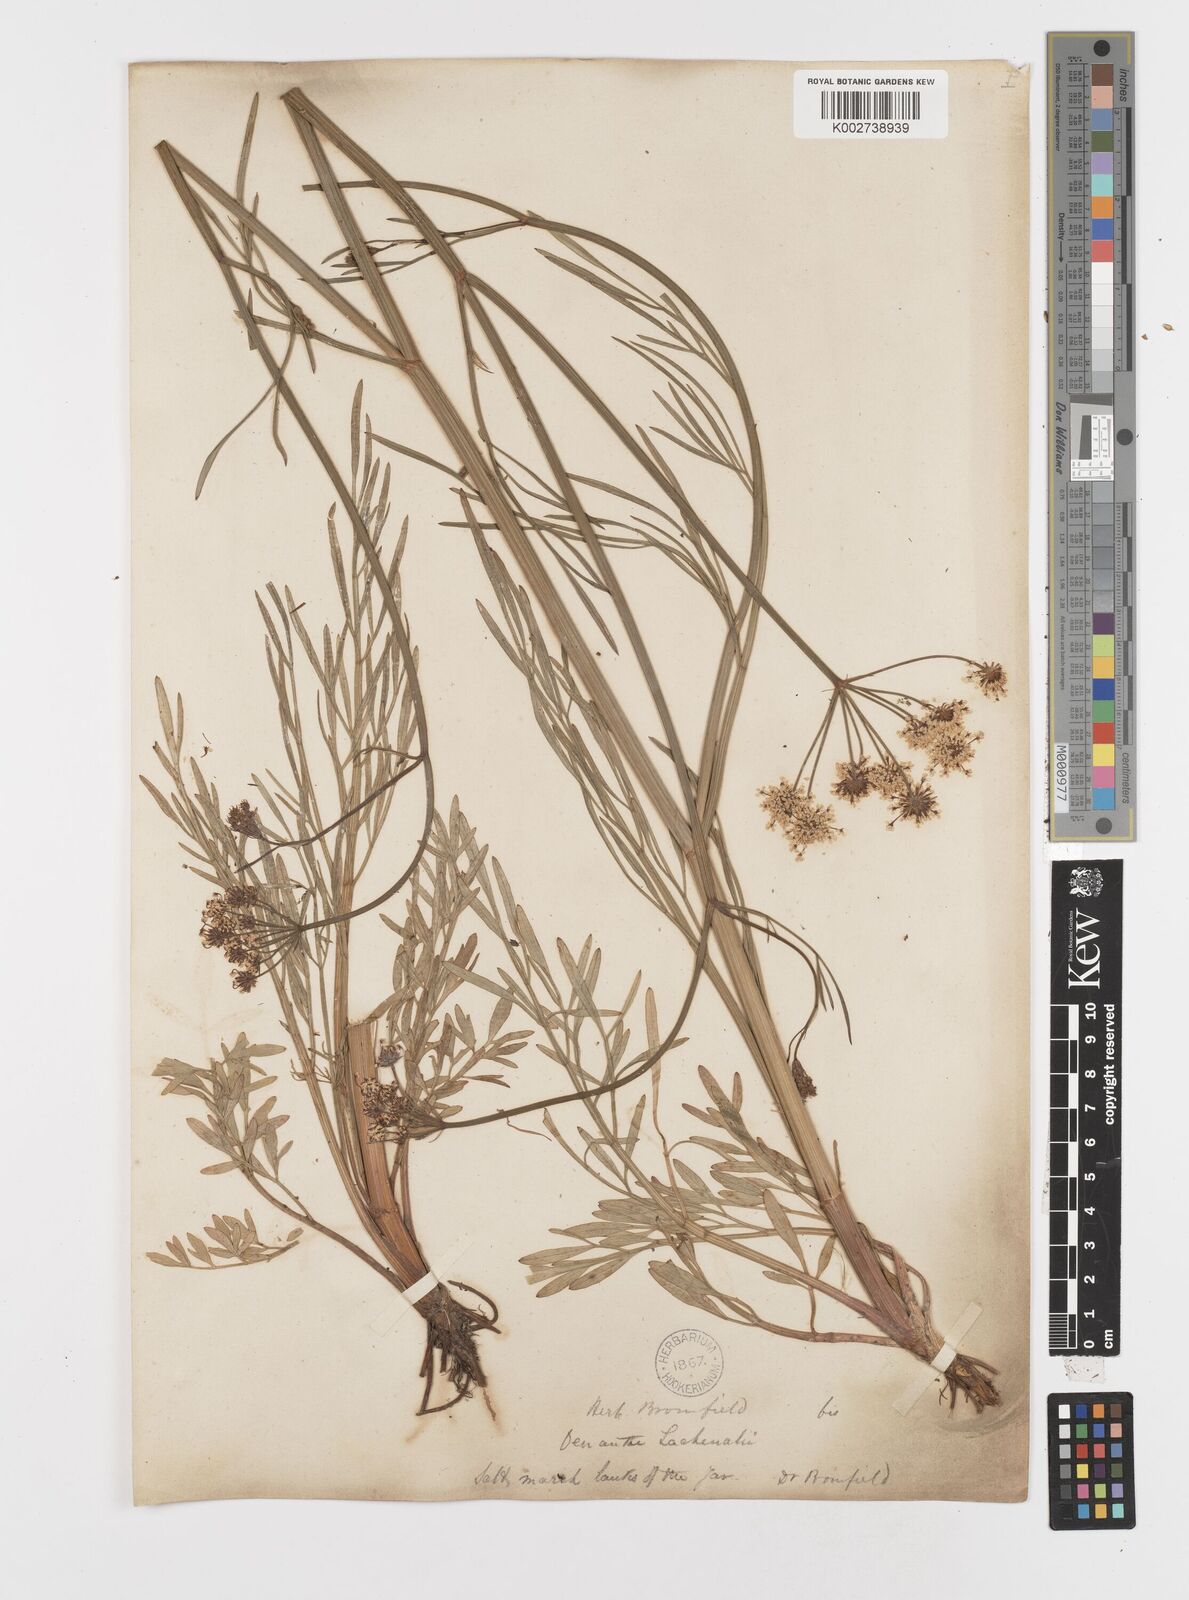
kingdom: Plantae
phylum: Tracheophyta
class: Magnoliopsida
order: Apiales
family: Apiaceae
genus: Oenanthe
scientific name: Oenanthe lachenalii
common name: Parsley water-dropwort
